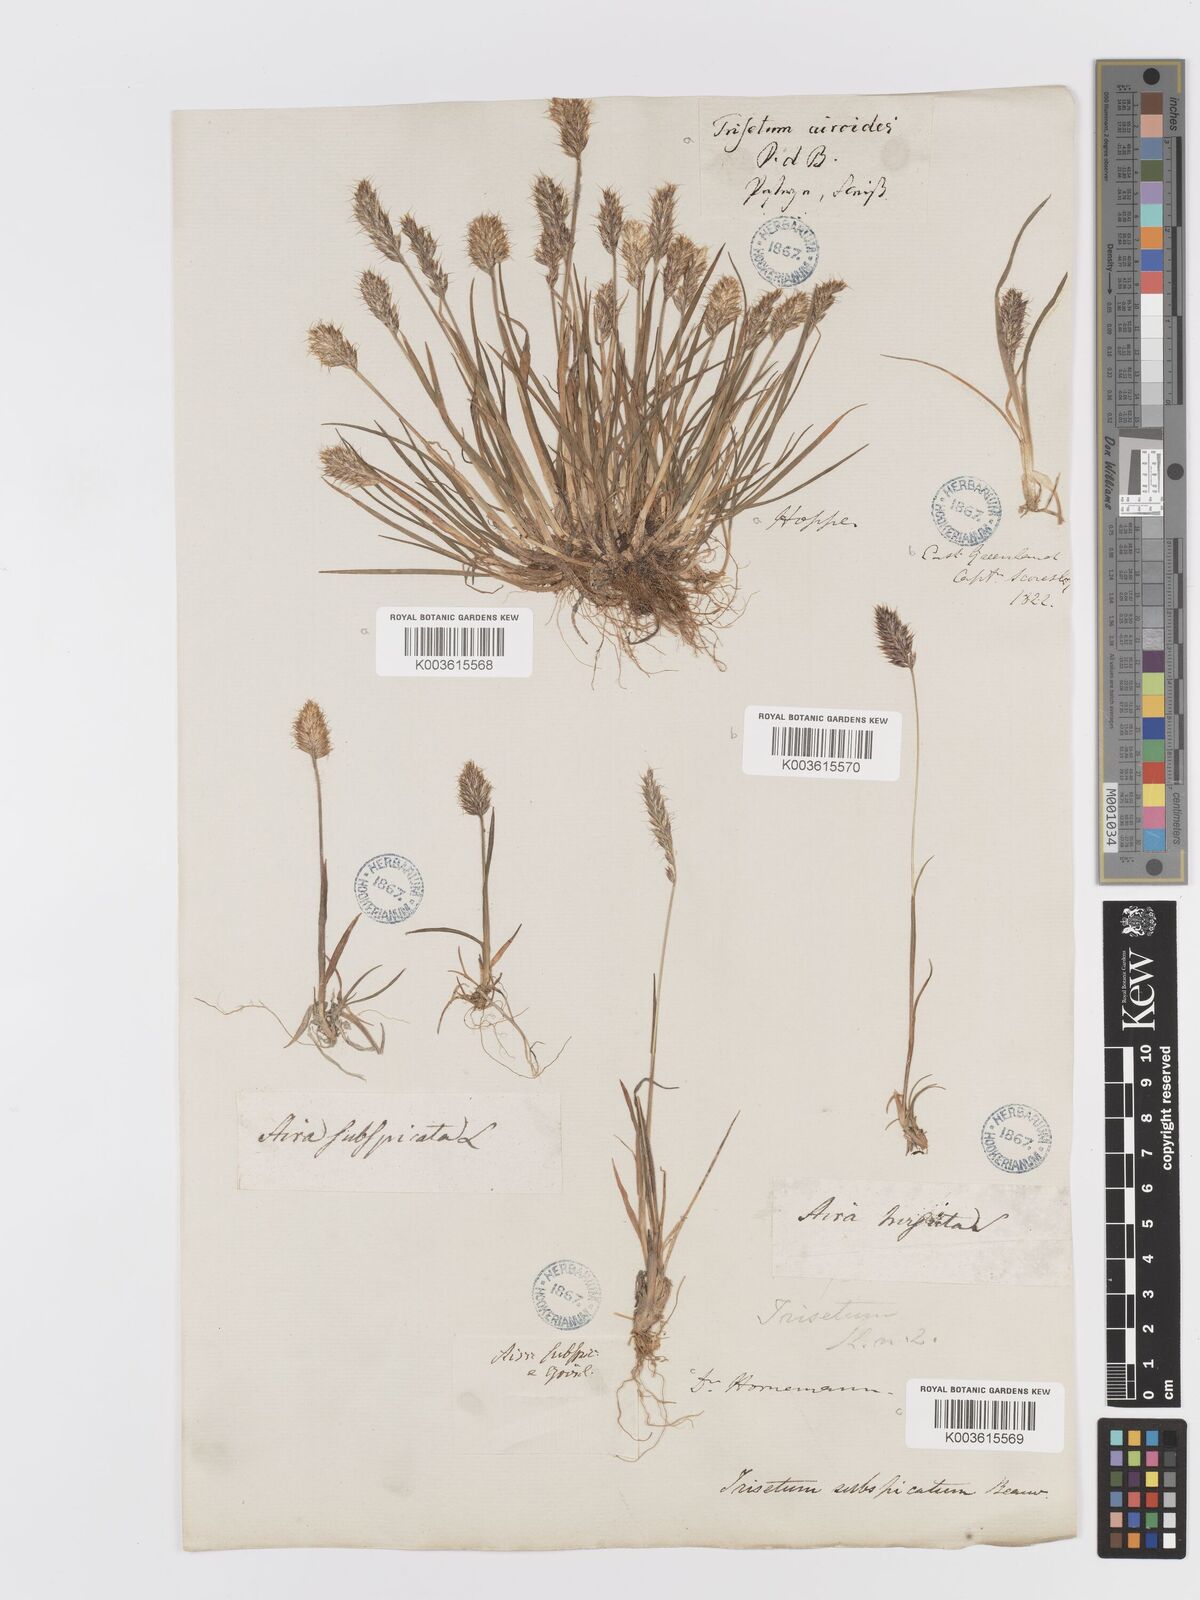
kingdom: Plantae
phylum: Tracheophyta
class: Liliopsida
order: Poales
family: Poaceae
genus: Koeleria
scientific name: Koeleria spicata
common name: Mountain trisetum
